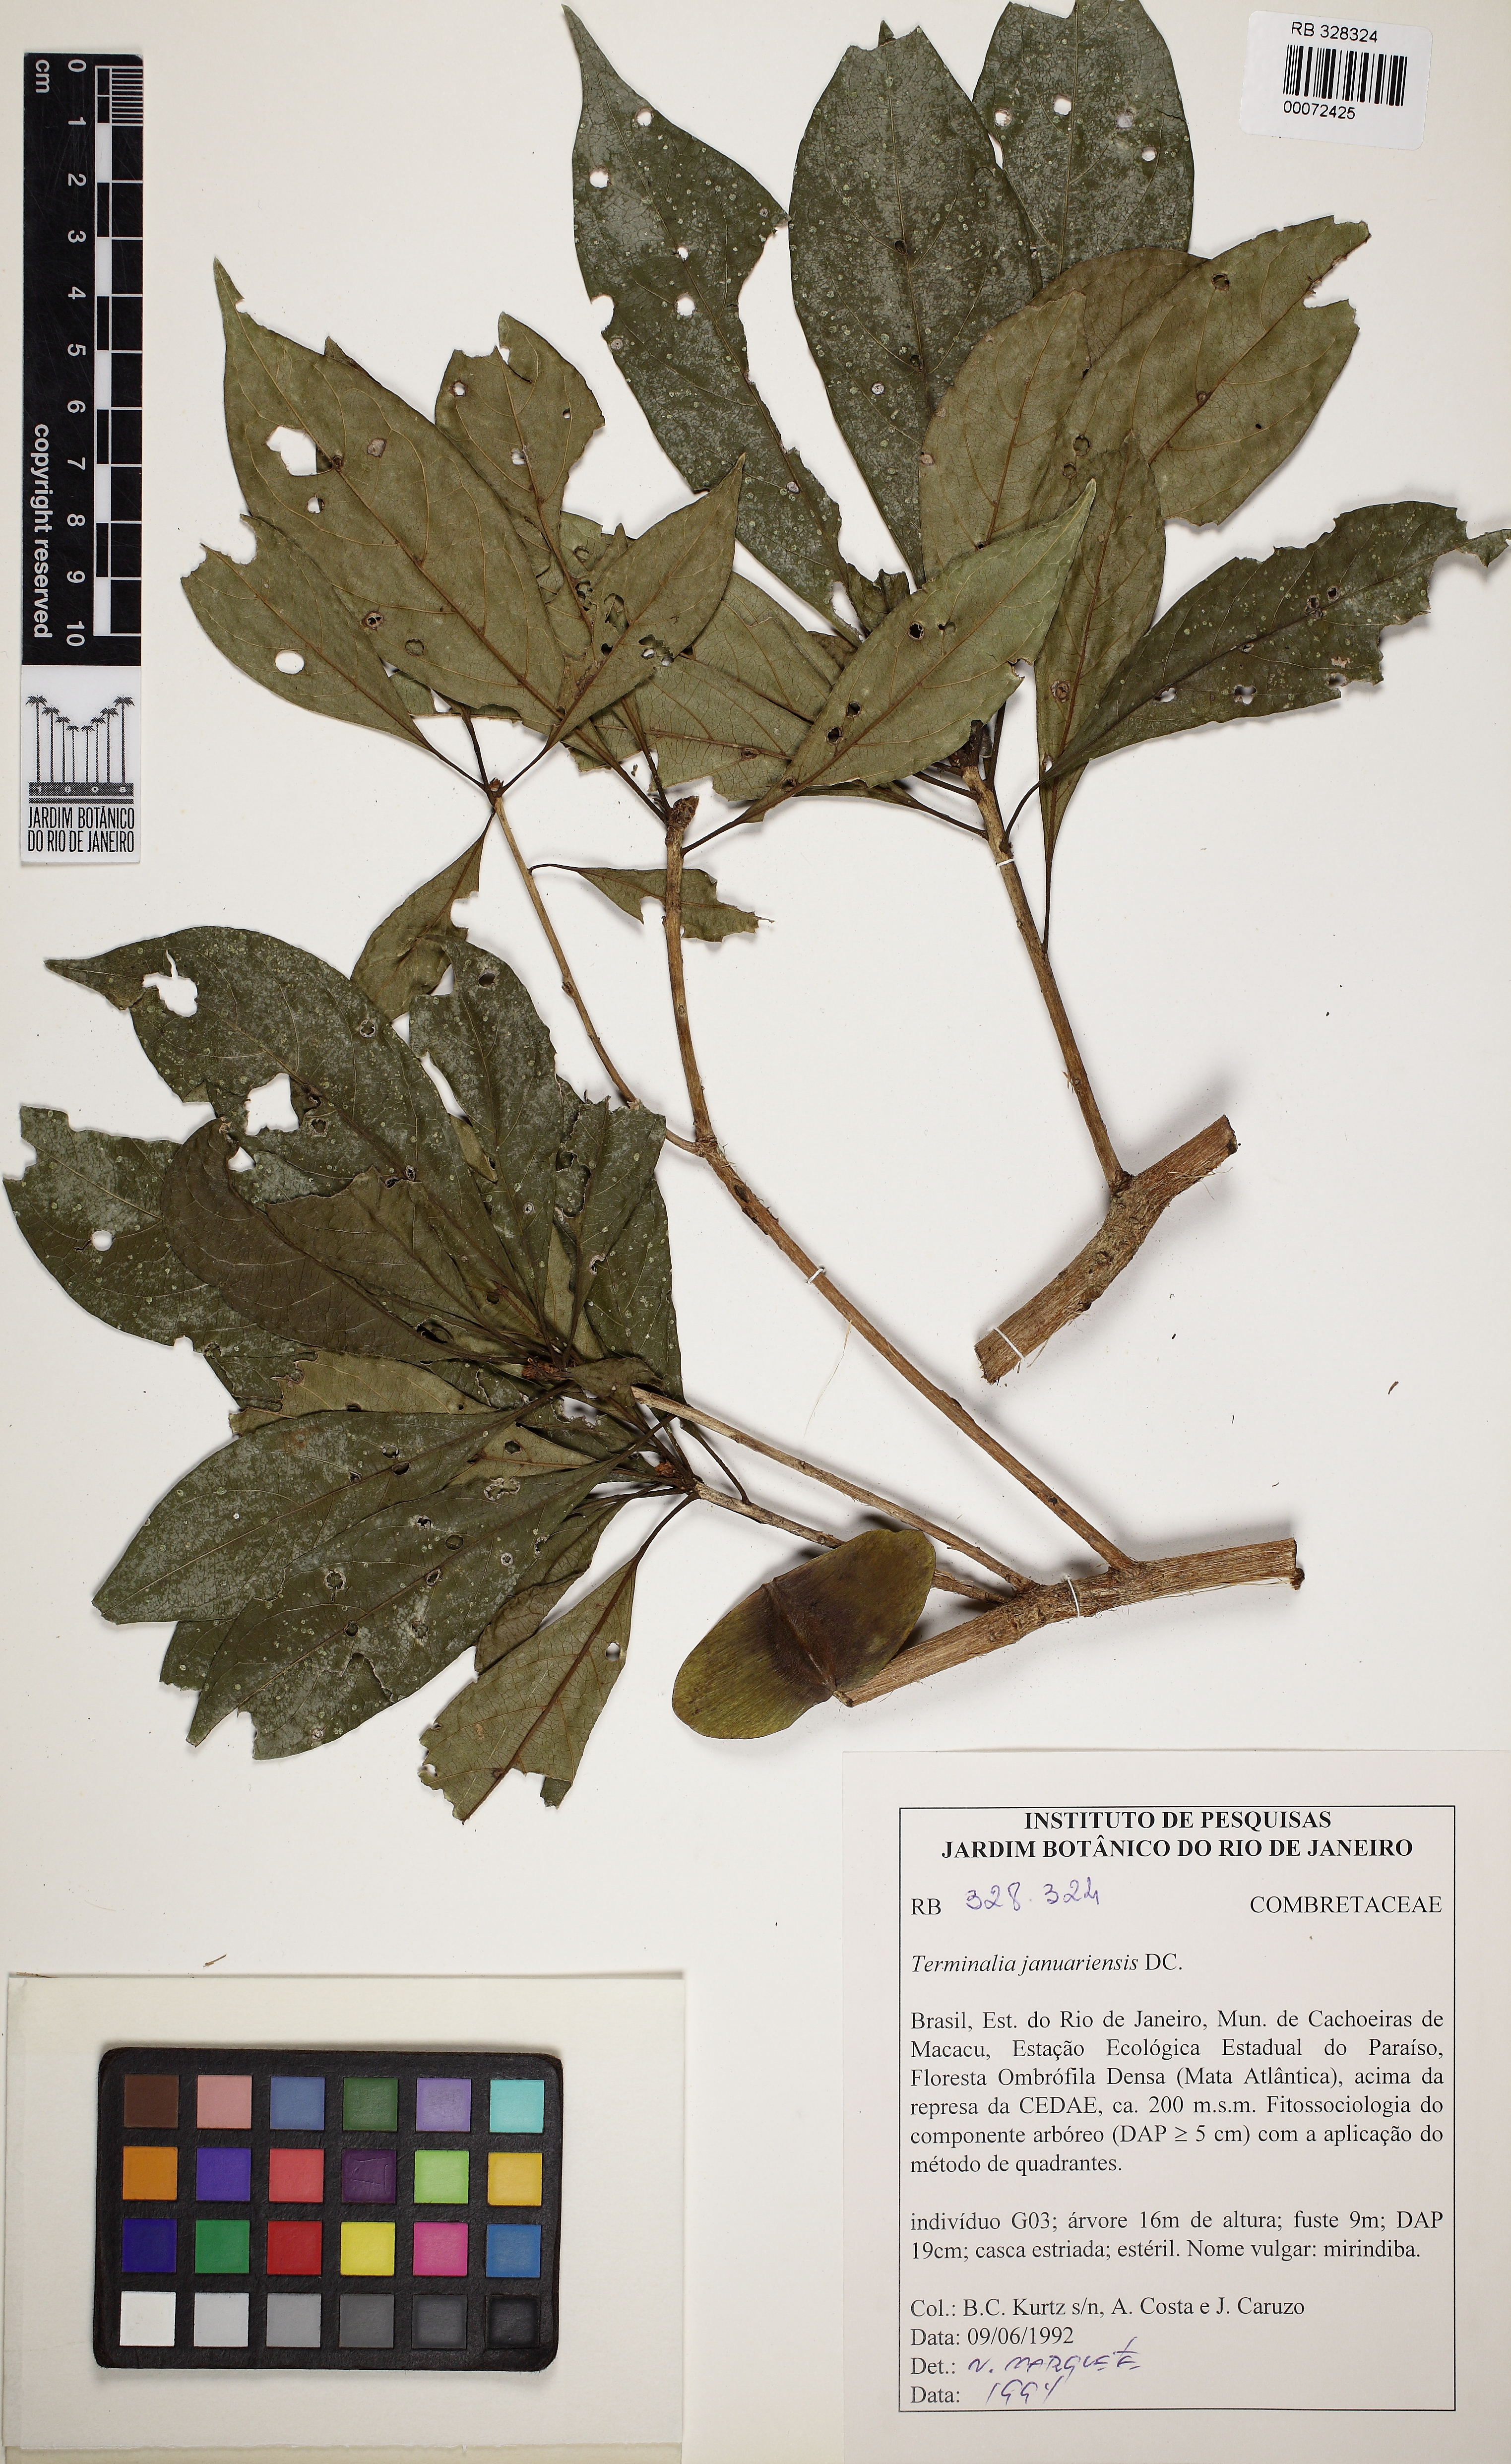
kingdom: Plantae
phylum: Tracheophyta
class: Magnoliopsida
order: Myrtales
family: Combretaceae
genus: Terminalia
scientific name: Terminalia januariensis
